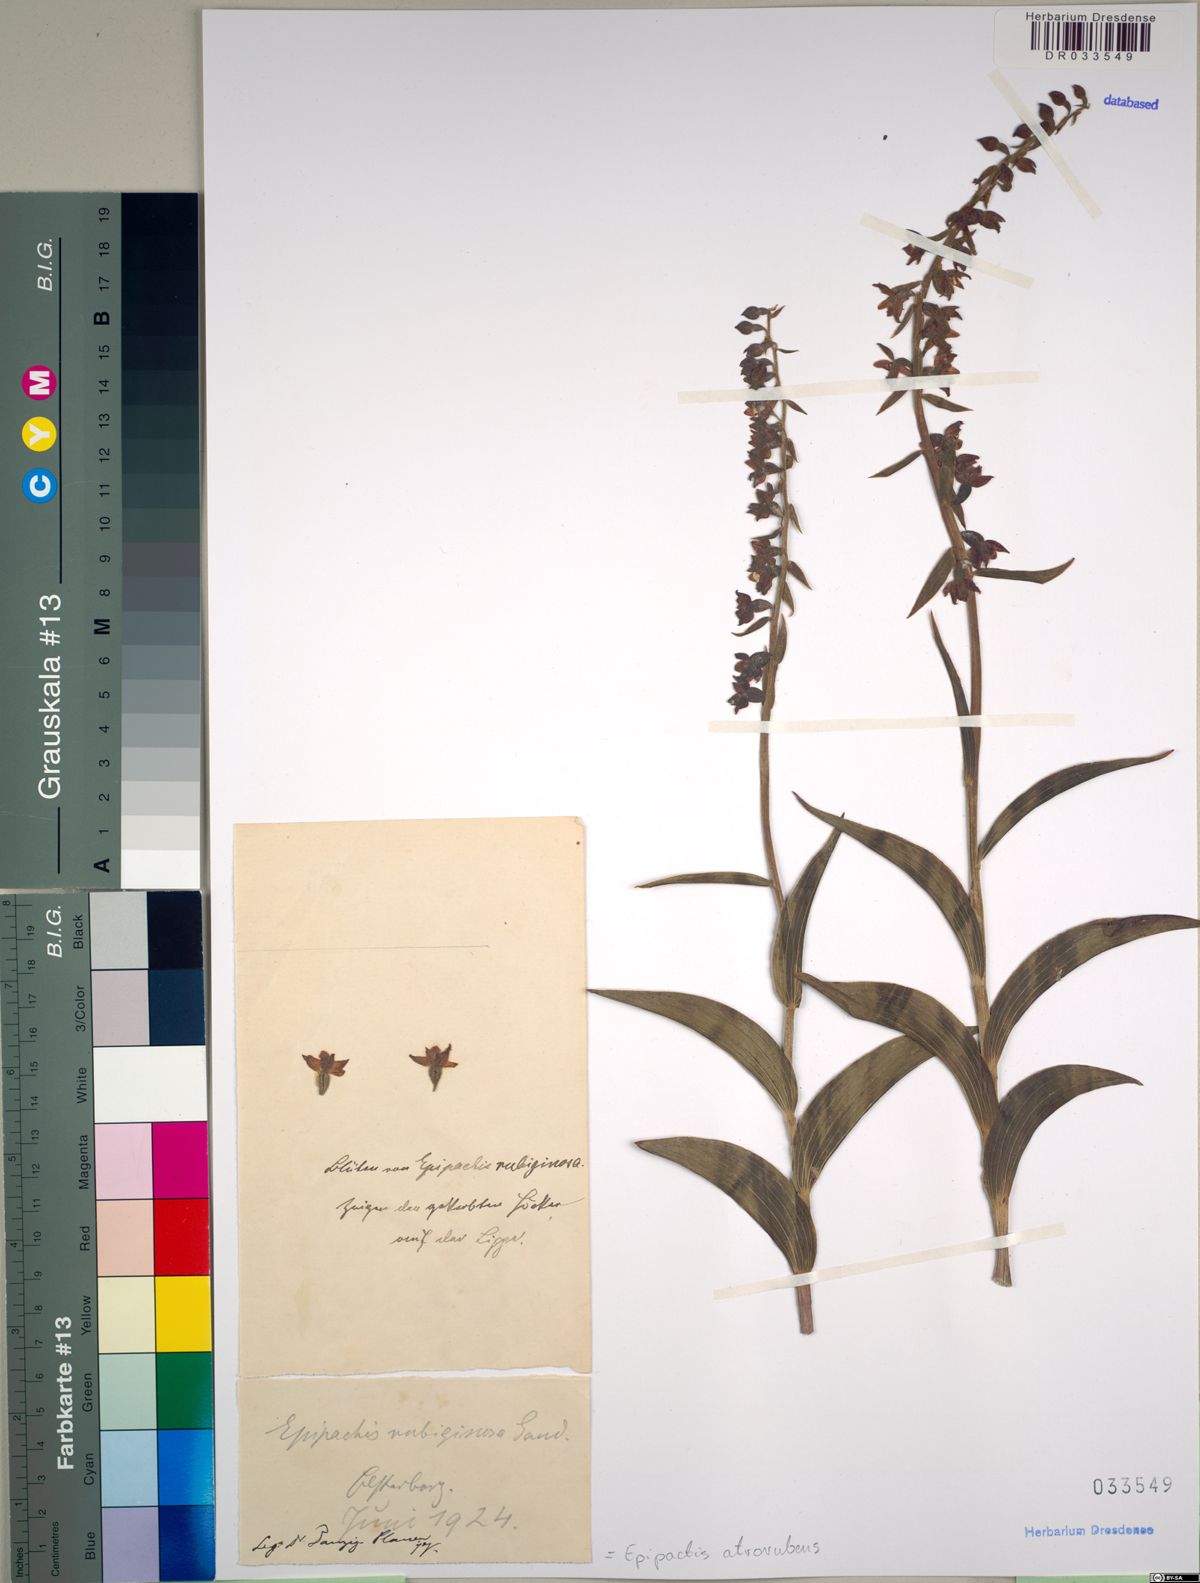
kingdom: Plantae
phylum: Tracheophyta
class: Liliopsida
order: Asparagales
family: Orchidaceae
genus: Epipactis
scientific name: Epipactis atrorubens
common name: Dark-red helleborine
